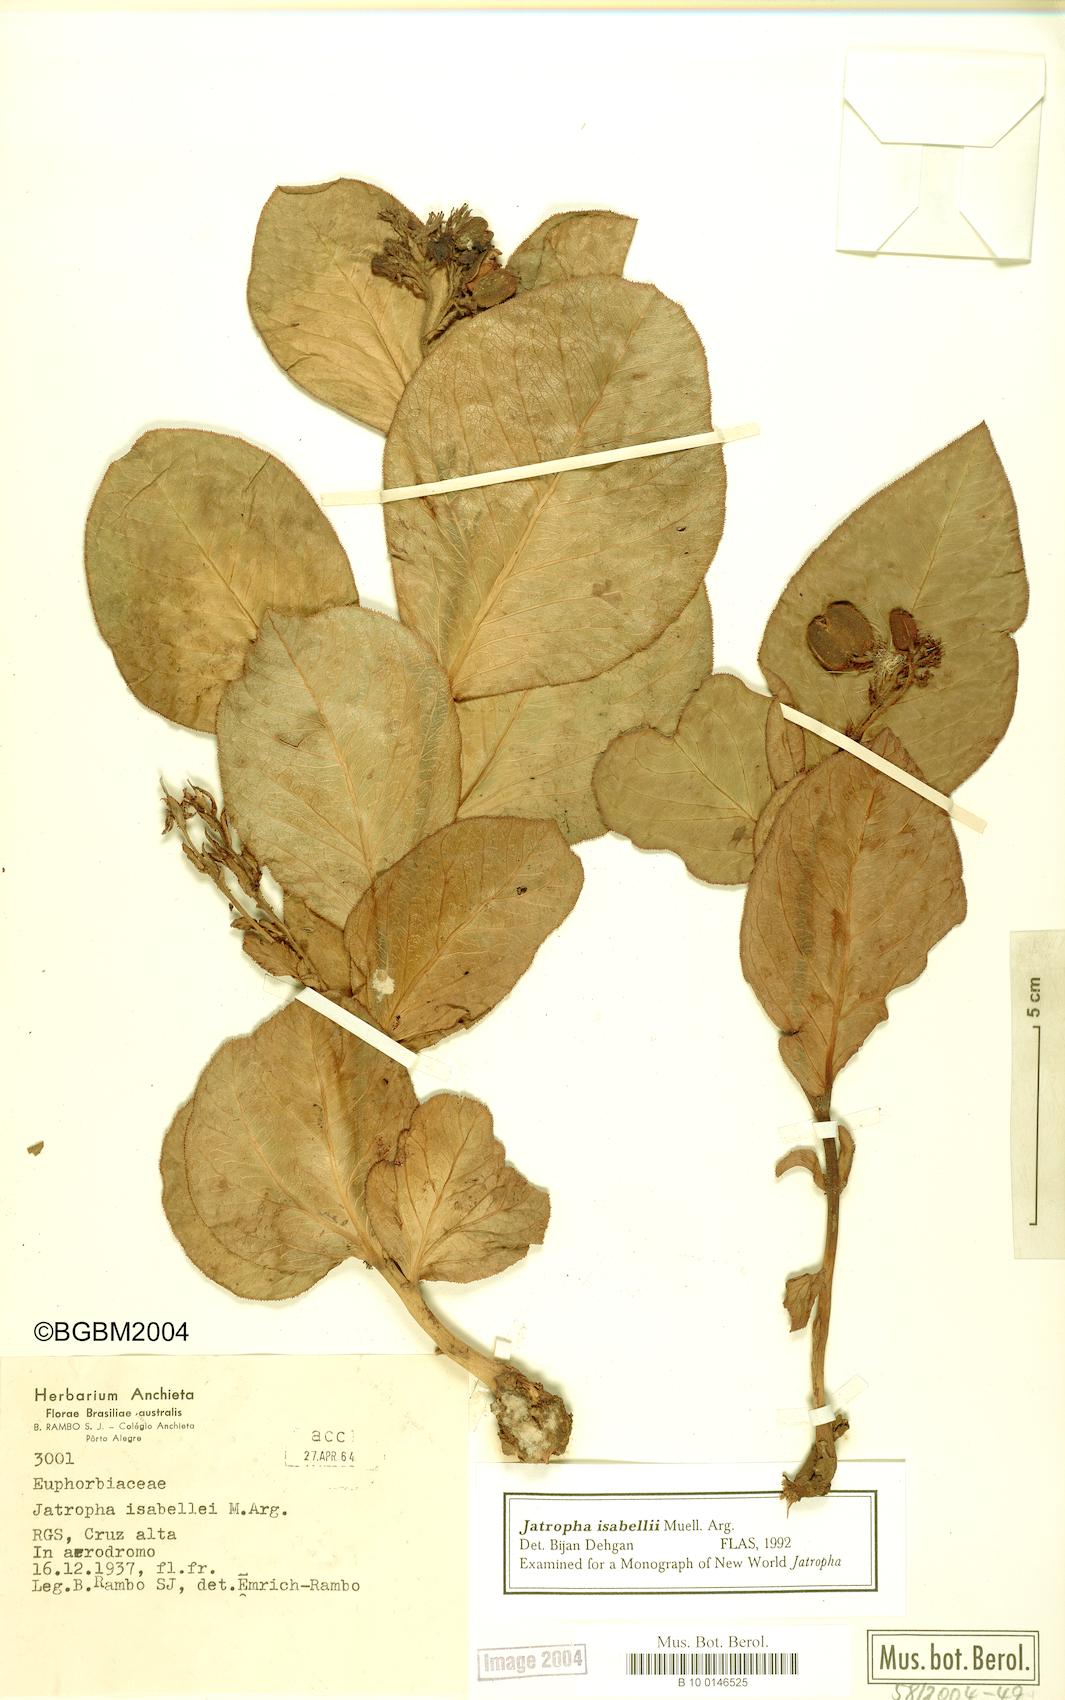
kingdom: Plantae
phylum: Tracheophyta
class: Magnoliopsida
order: Malpighiales
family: Euphorbiaceae
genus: Jatropha
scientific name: Jatropha isabellei
